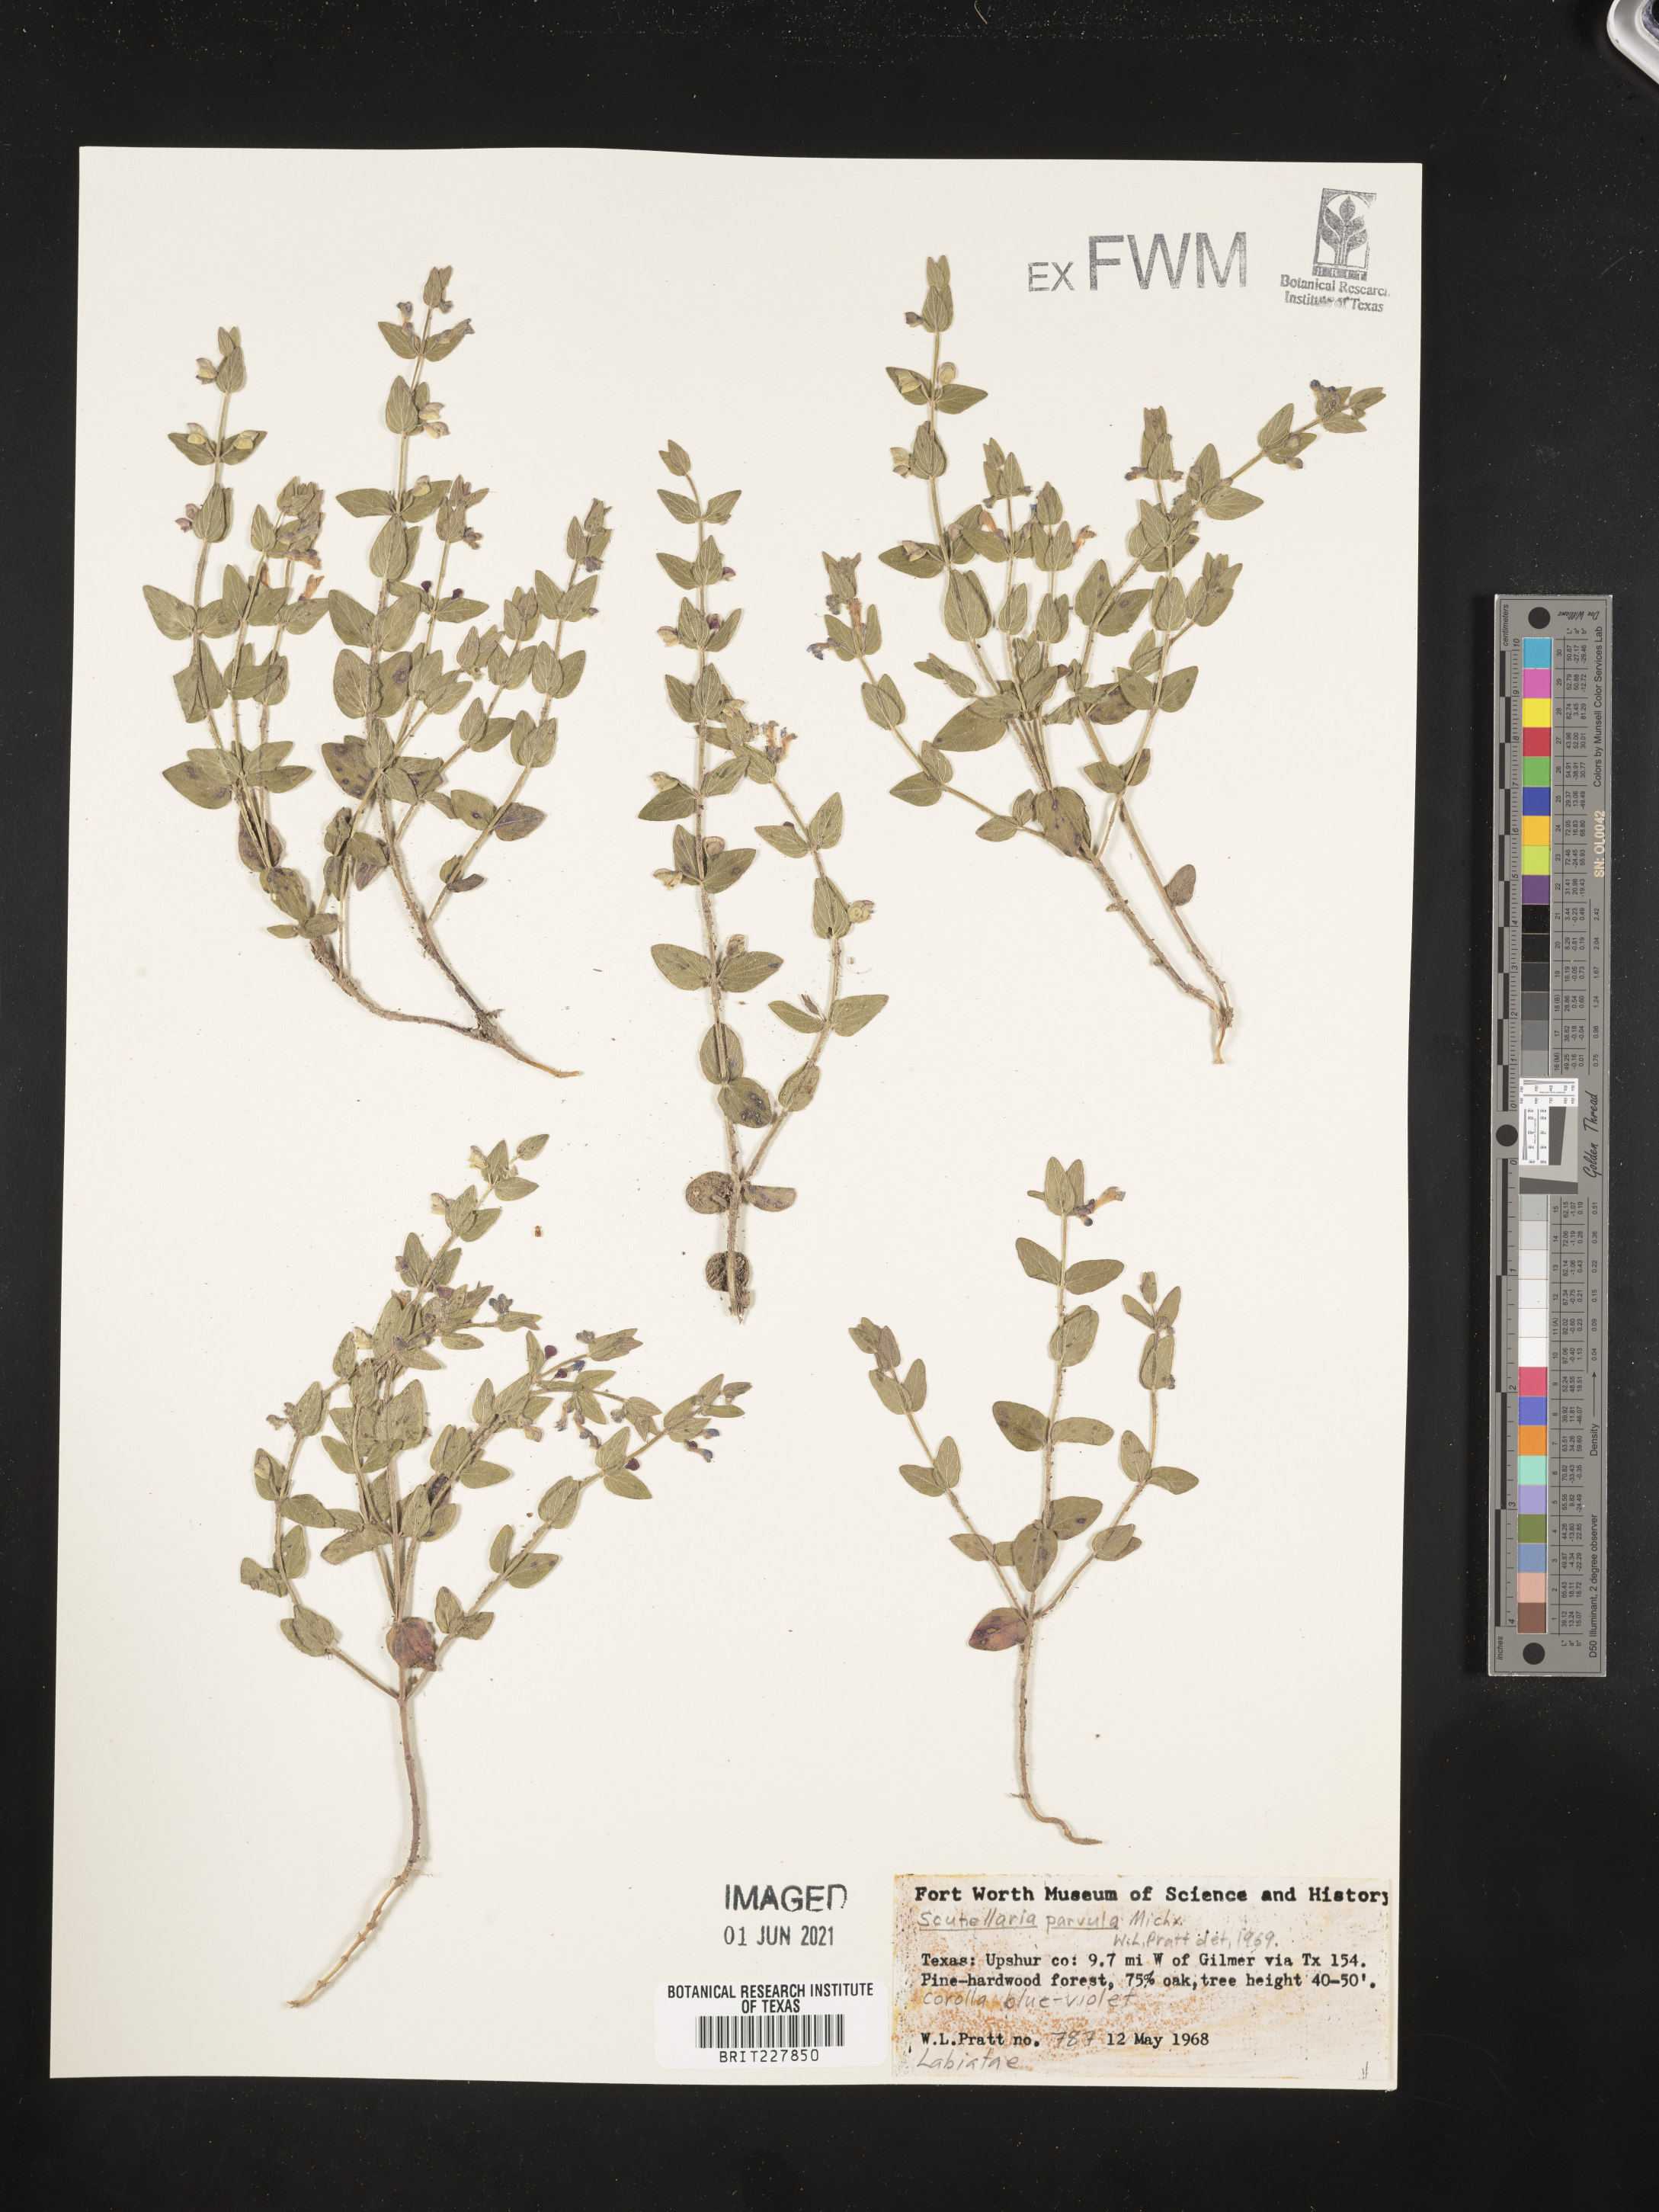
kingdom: Plantae
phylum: Tracheophyta
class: Magnoliopsida
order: Lamiales
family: Lamiaceae
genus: Scutellaria
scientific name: Scutellaria parvula
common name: Little scullcap
